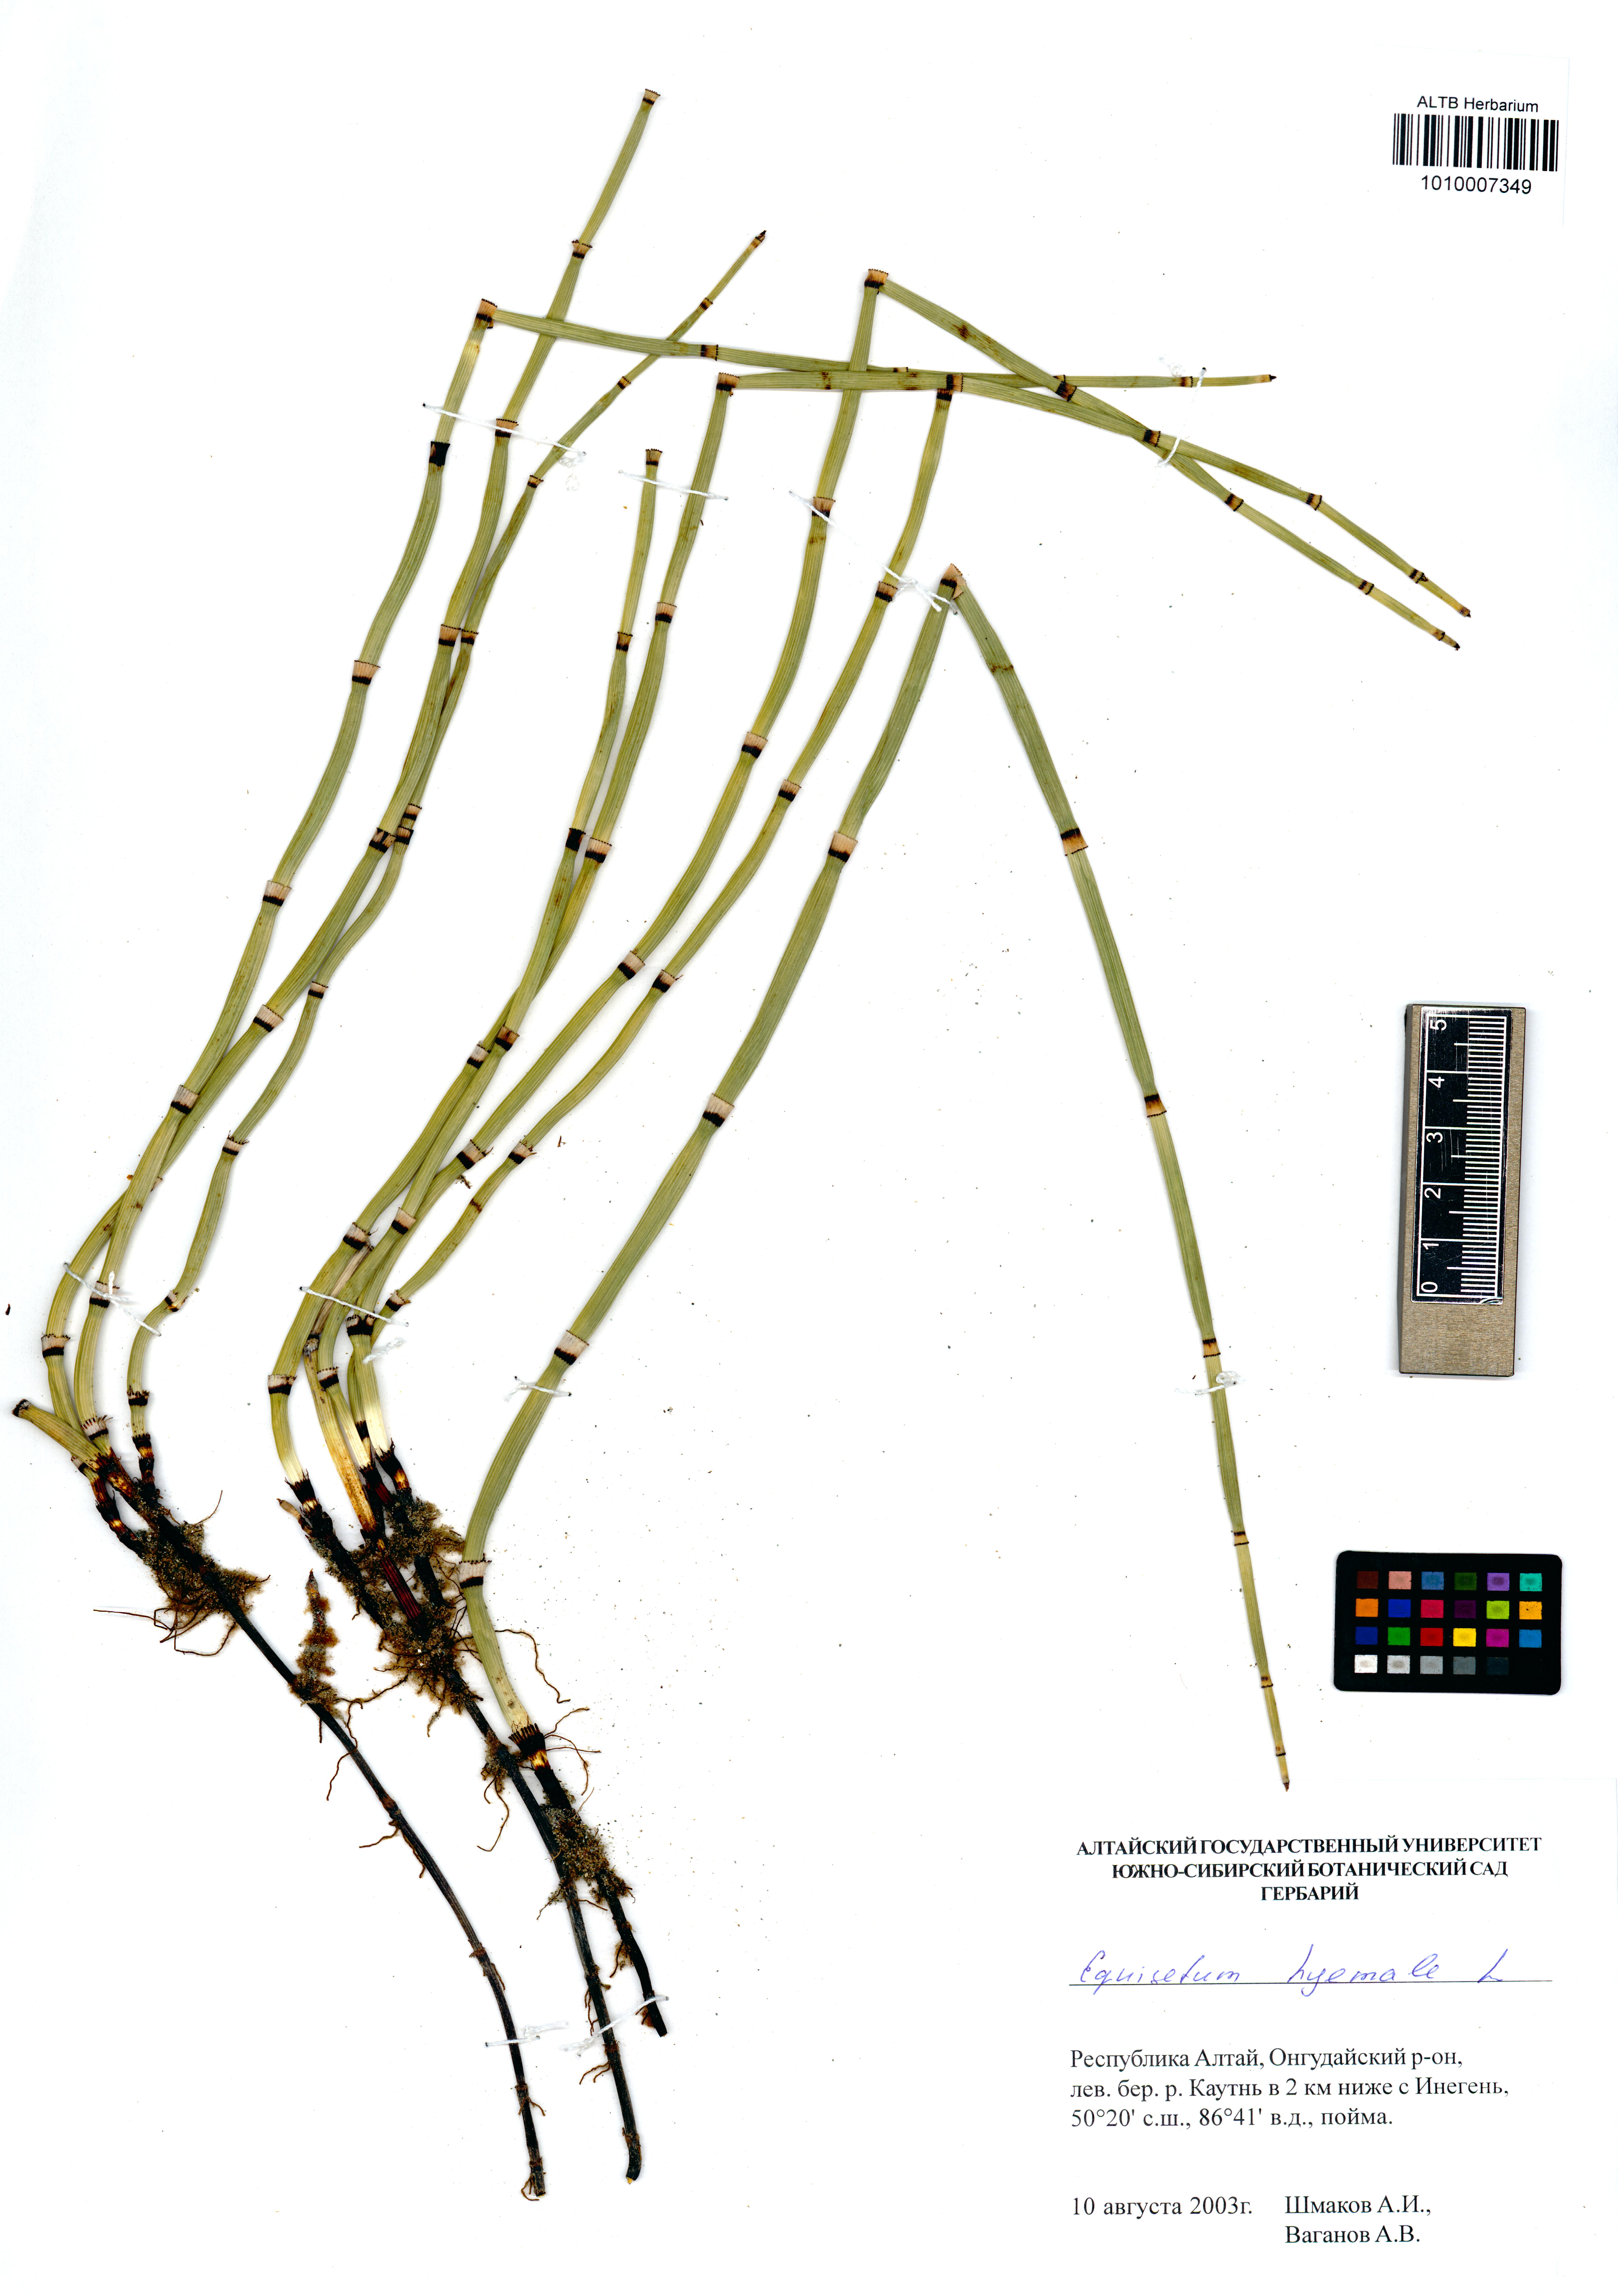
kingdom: Plantae
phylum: Tracheophyta
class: Polypodiopsida
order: Equisetales
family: Equisetaceae
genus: Equisetum
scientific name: Equisetum hyemale
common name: Rough horsetail
